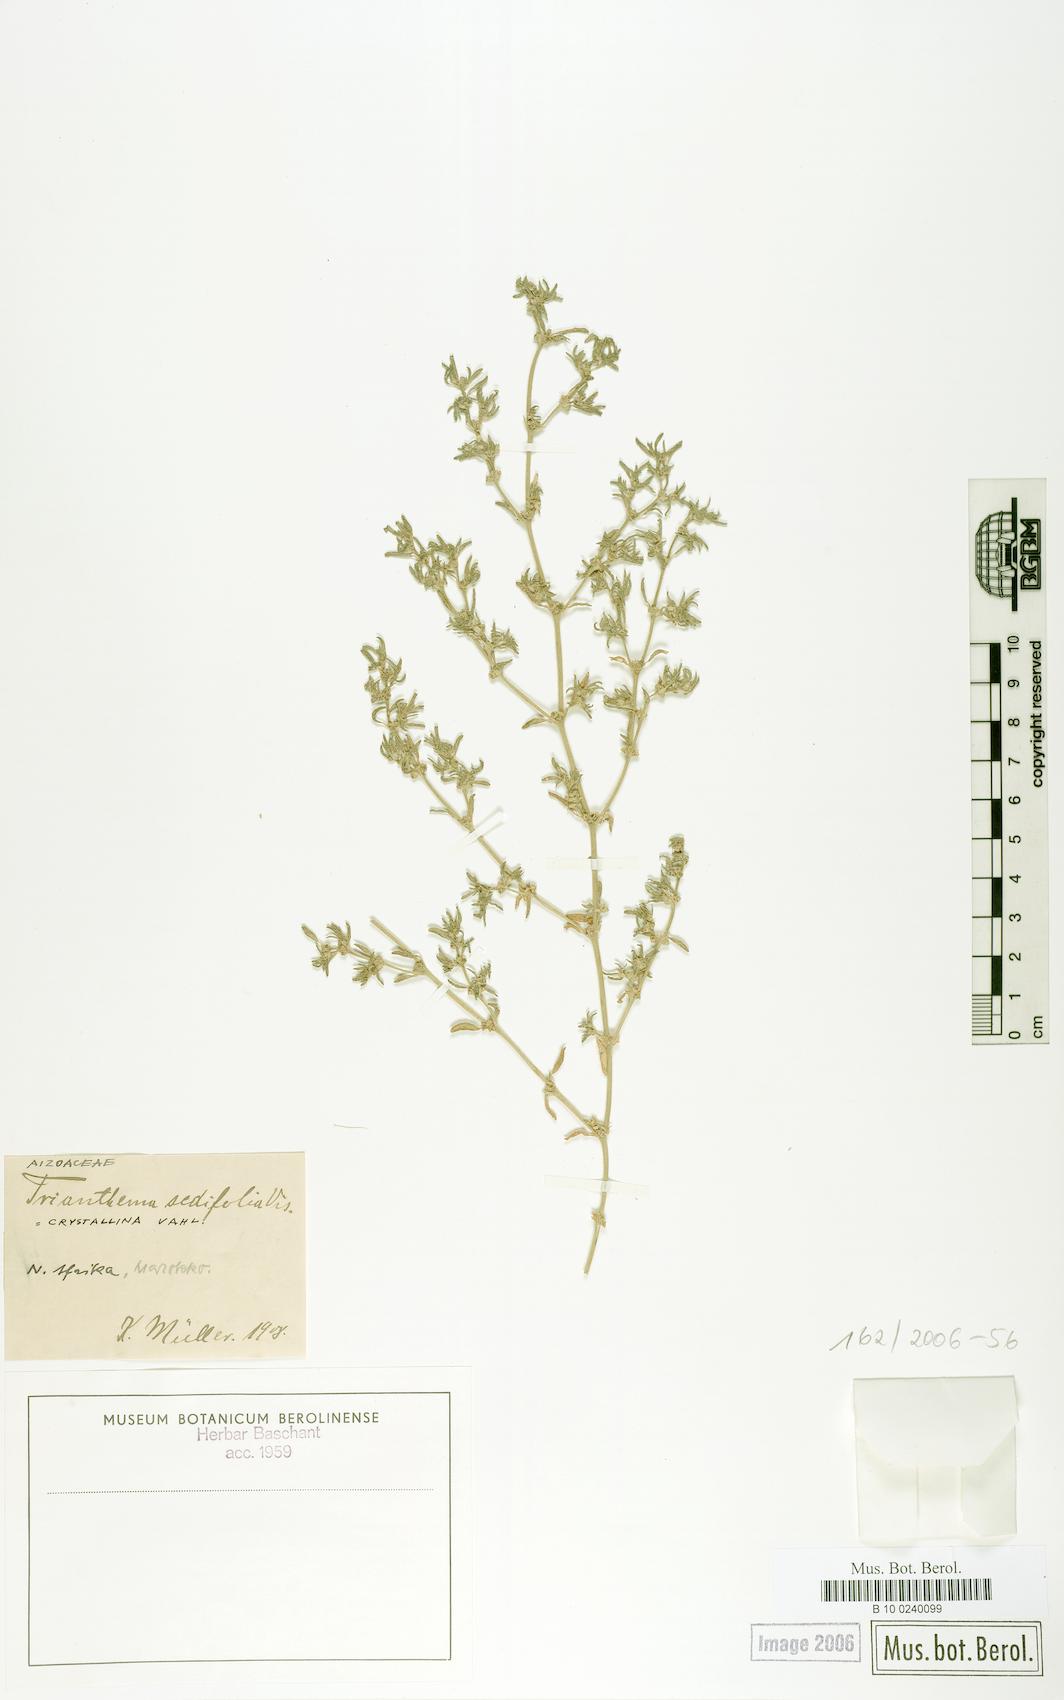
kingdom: Plantae
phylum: Tracheophyta
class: Magnoliopsida
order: Caryophyllales
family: Aizoaceae
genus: Trianthema
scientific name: Trianthema triquetrum
